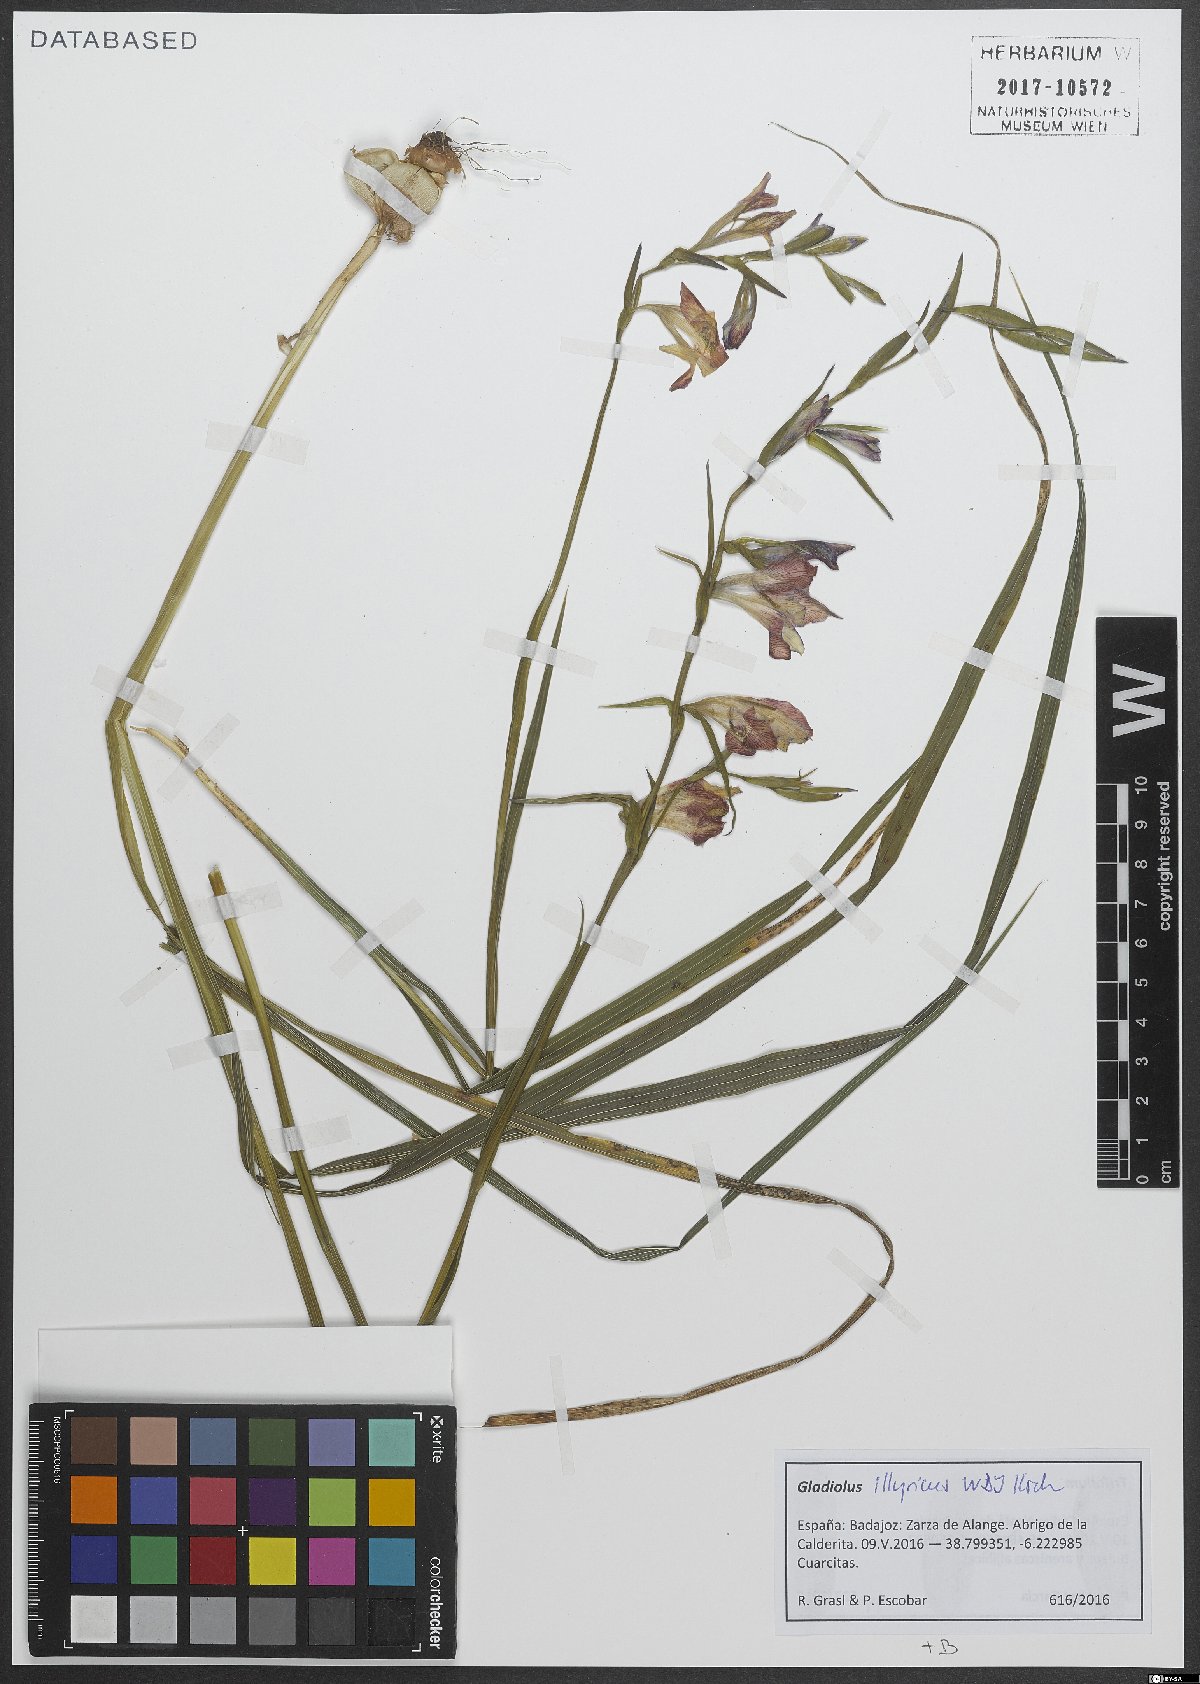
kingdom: Plantae
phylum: Tracheophyta
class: Liliopsida
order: Asparagales
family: Iridaceae
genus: Gladiolus
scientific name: Gladiolus illyricus
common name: Wild gladiolus
